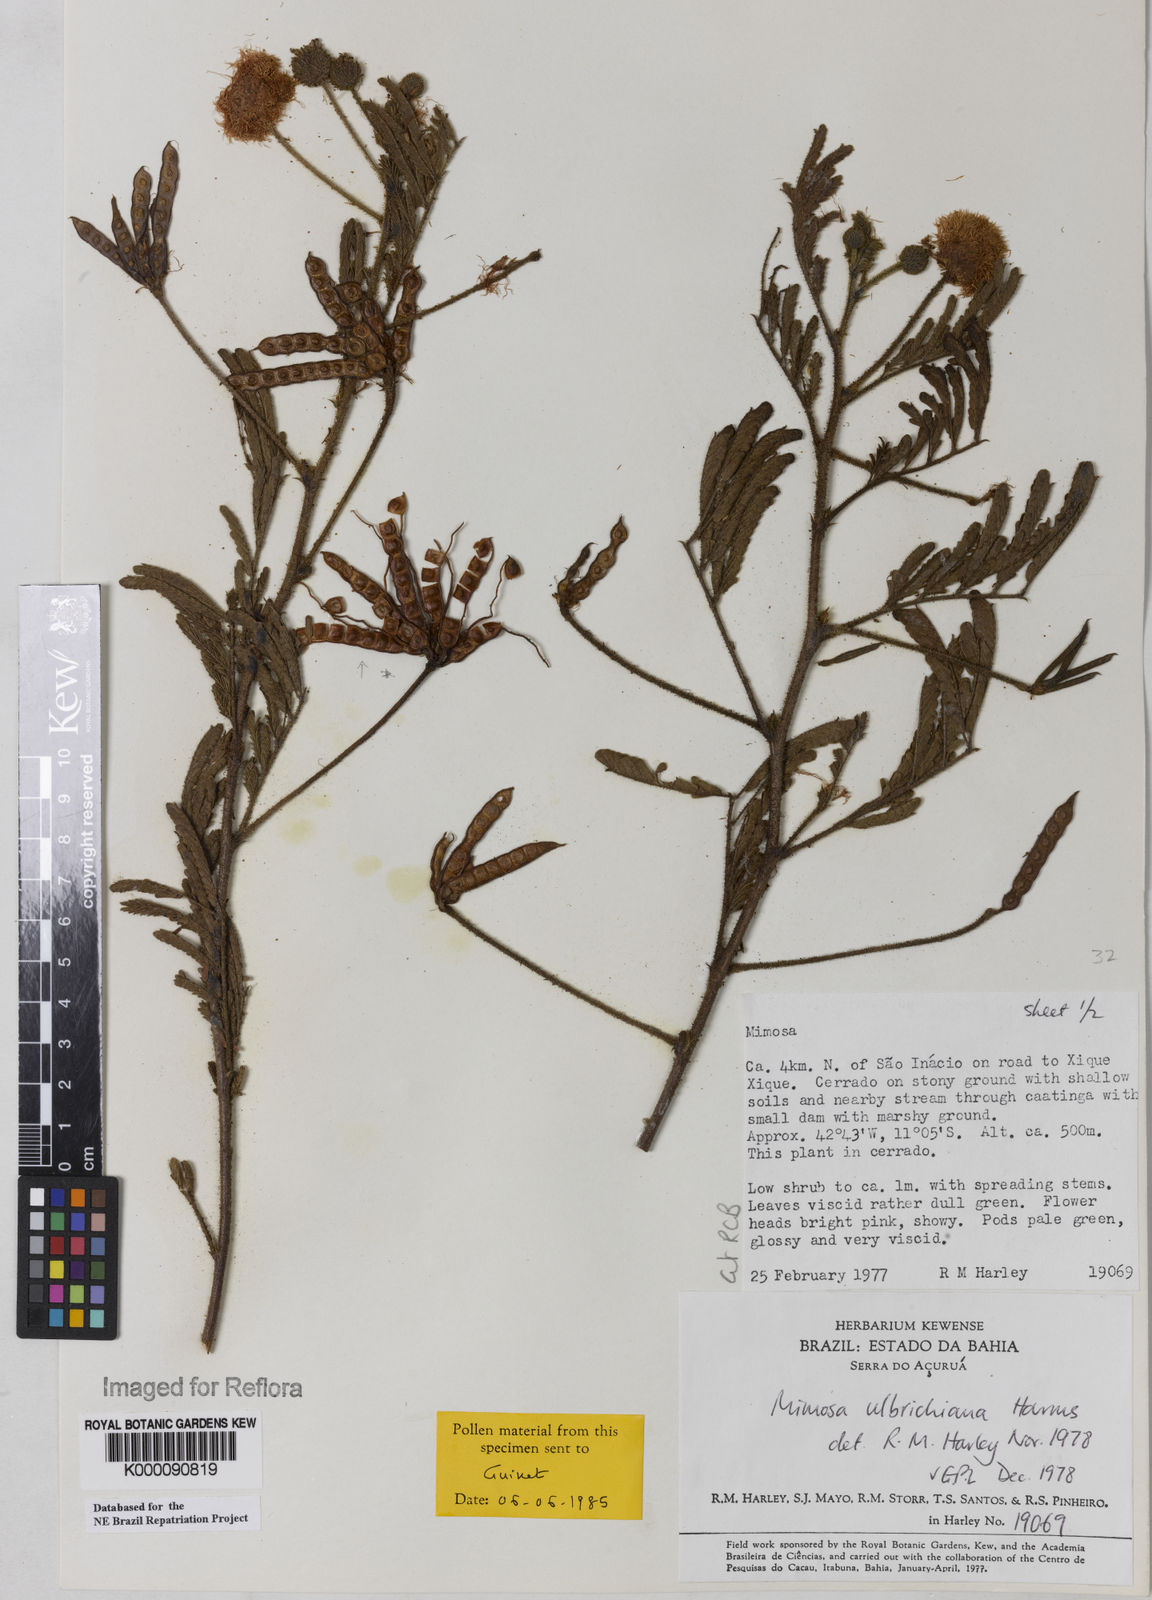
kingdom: Plantae
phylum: Tracheophyta
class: Magnoliopsida
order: Fabales
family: Fabaceae
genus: Mimosa
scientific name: Mimosa ulbrichiana
